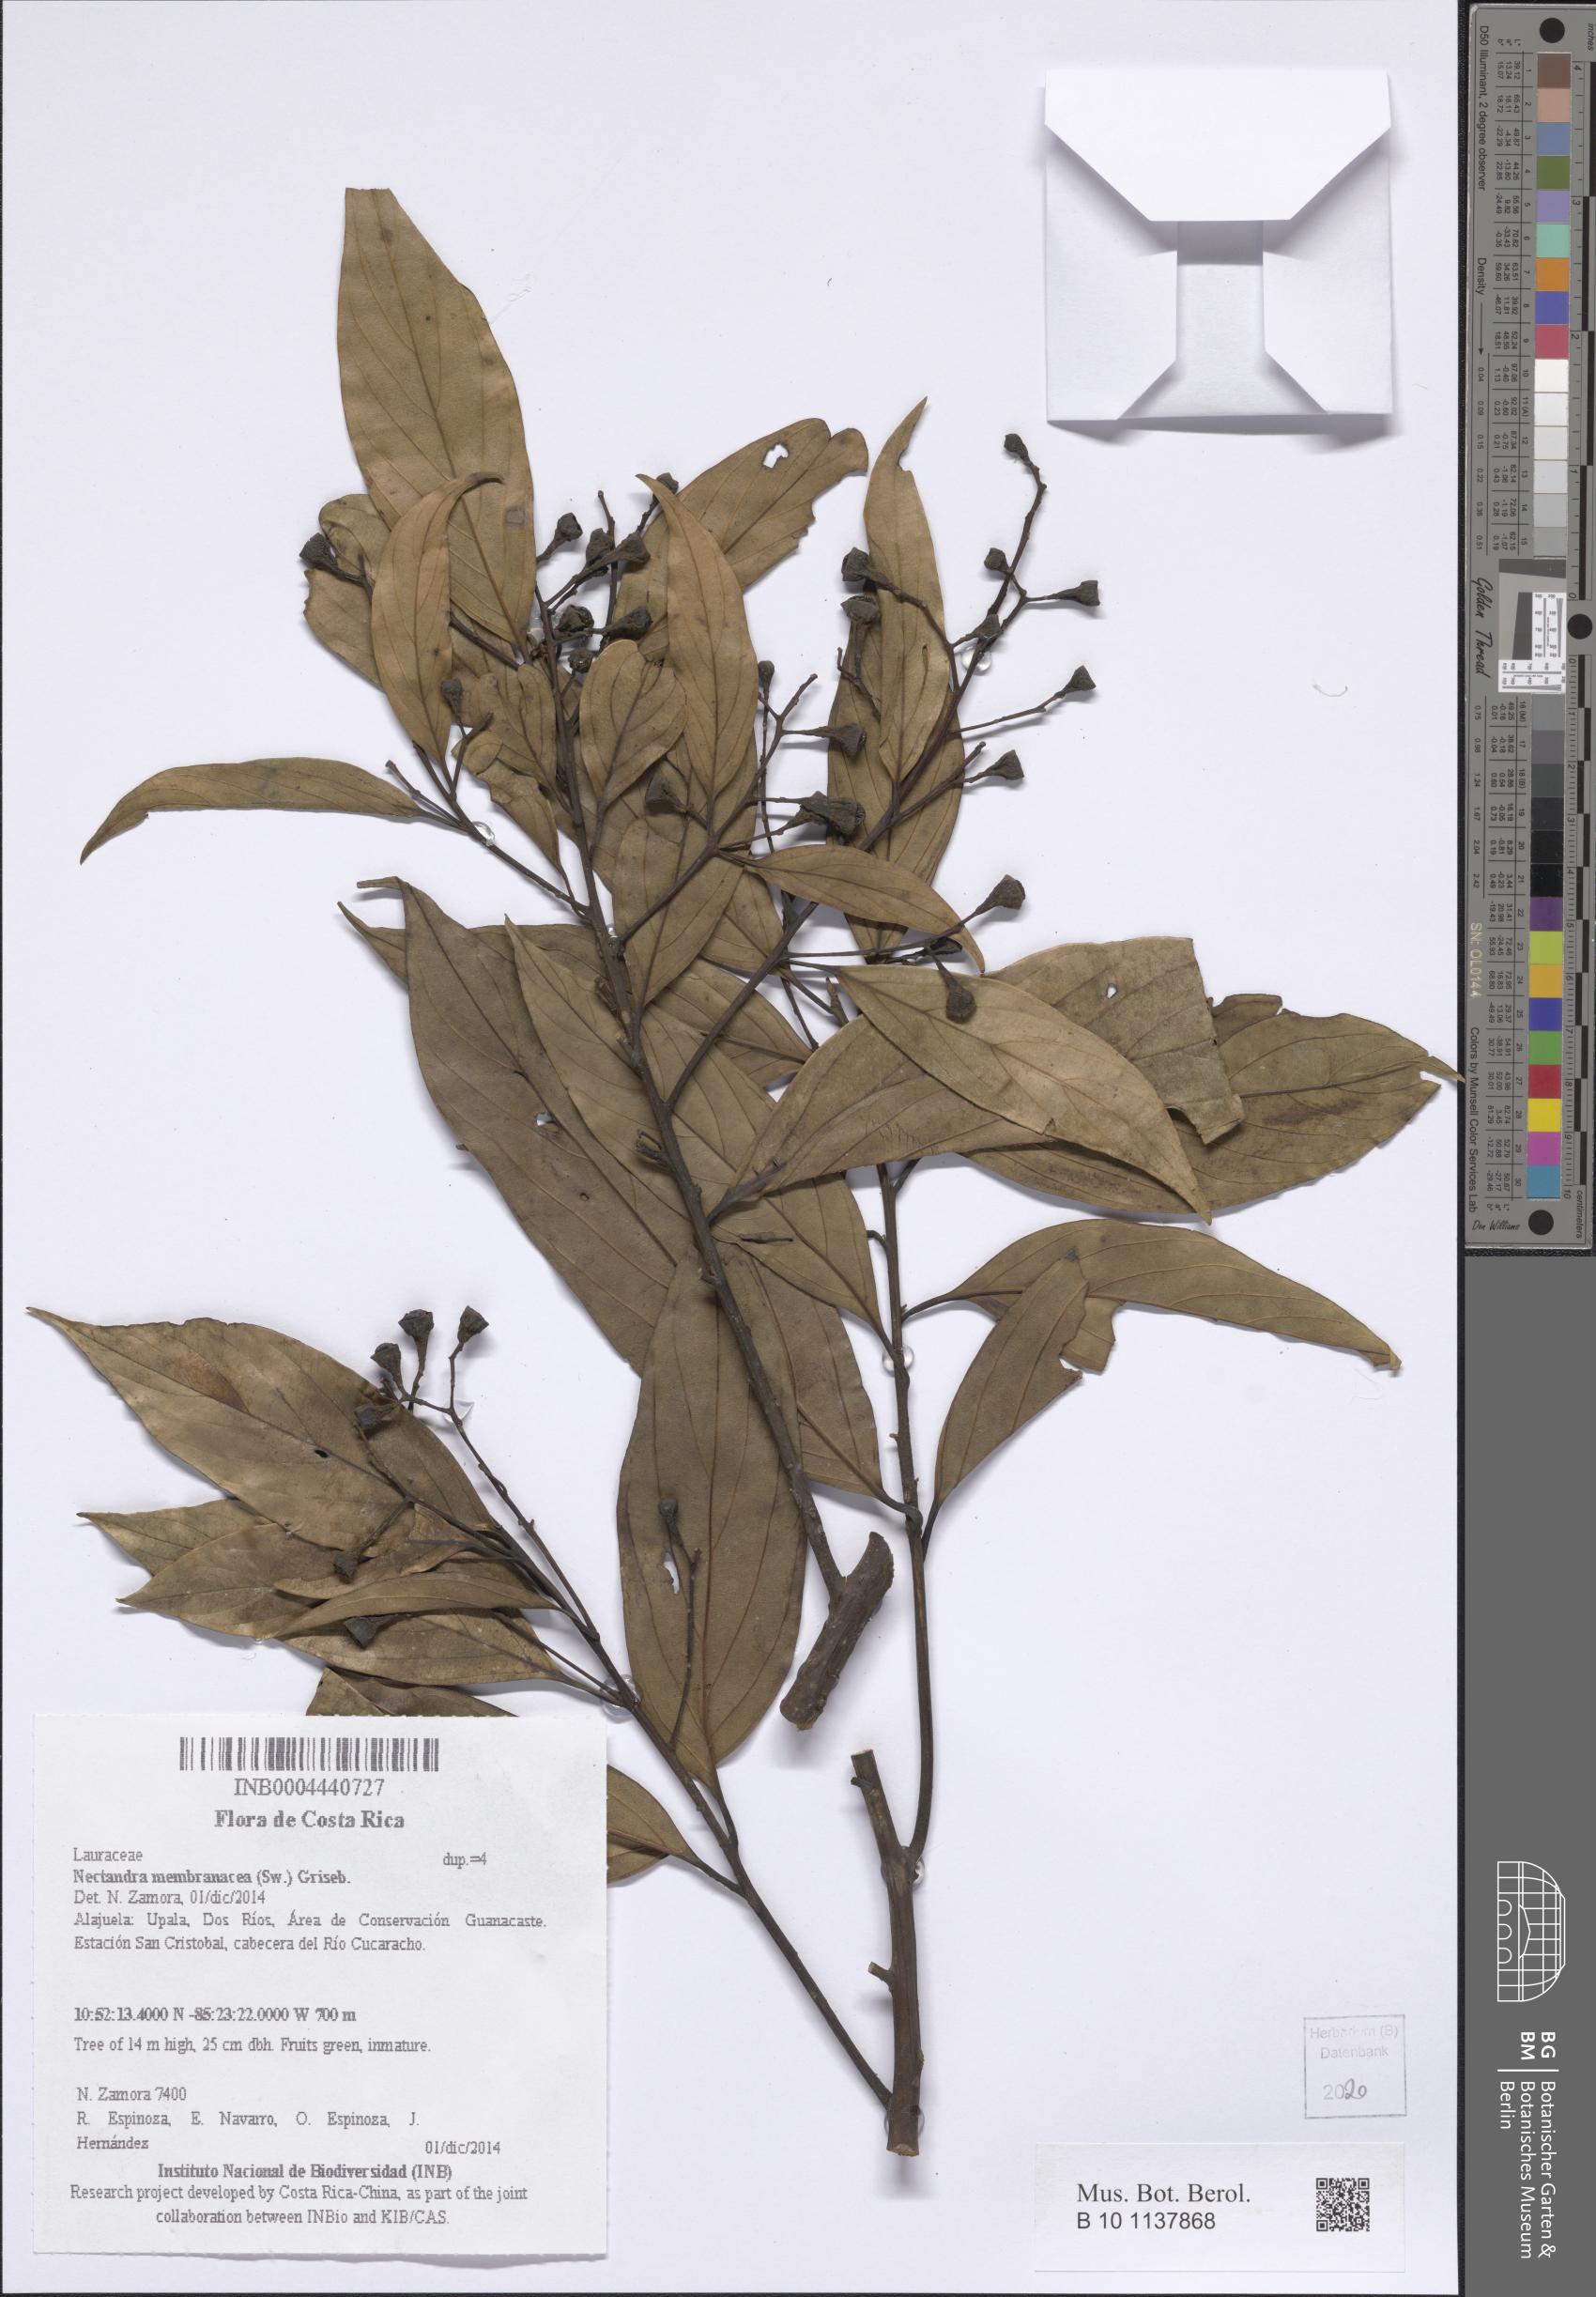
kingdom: Plantae
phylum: Tracheophyta
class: Magnoliopsida
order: Laurales
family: Lauraceae
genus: Nectandra
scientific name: Nectandra membranacea
